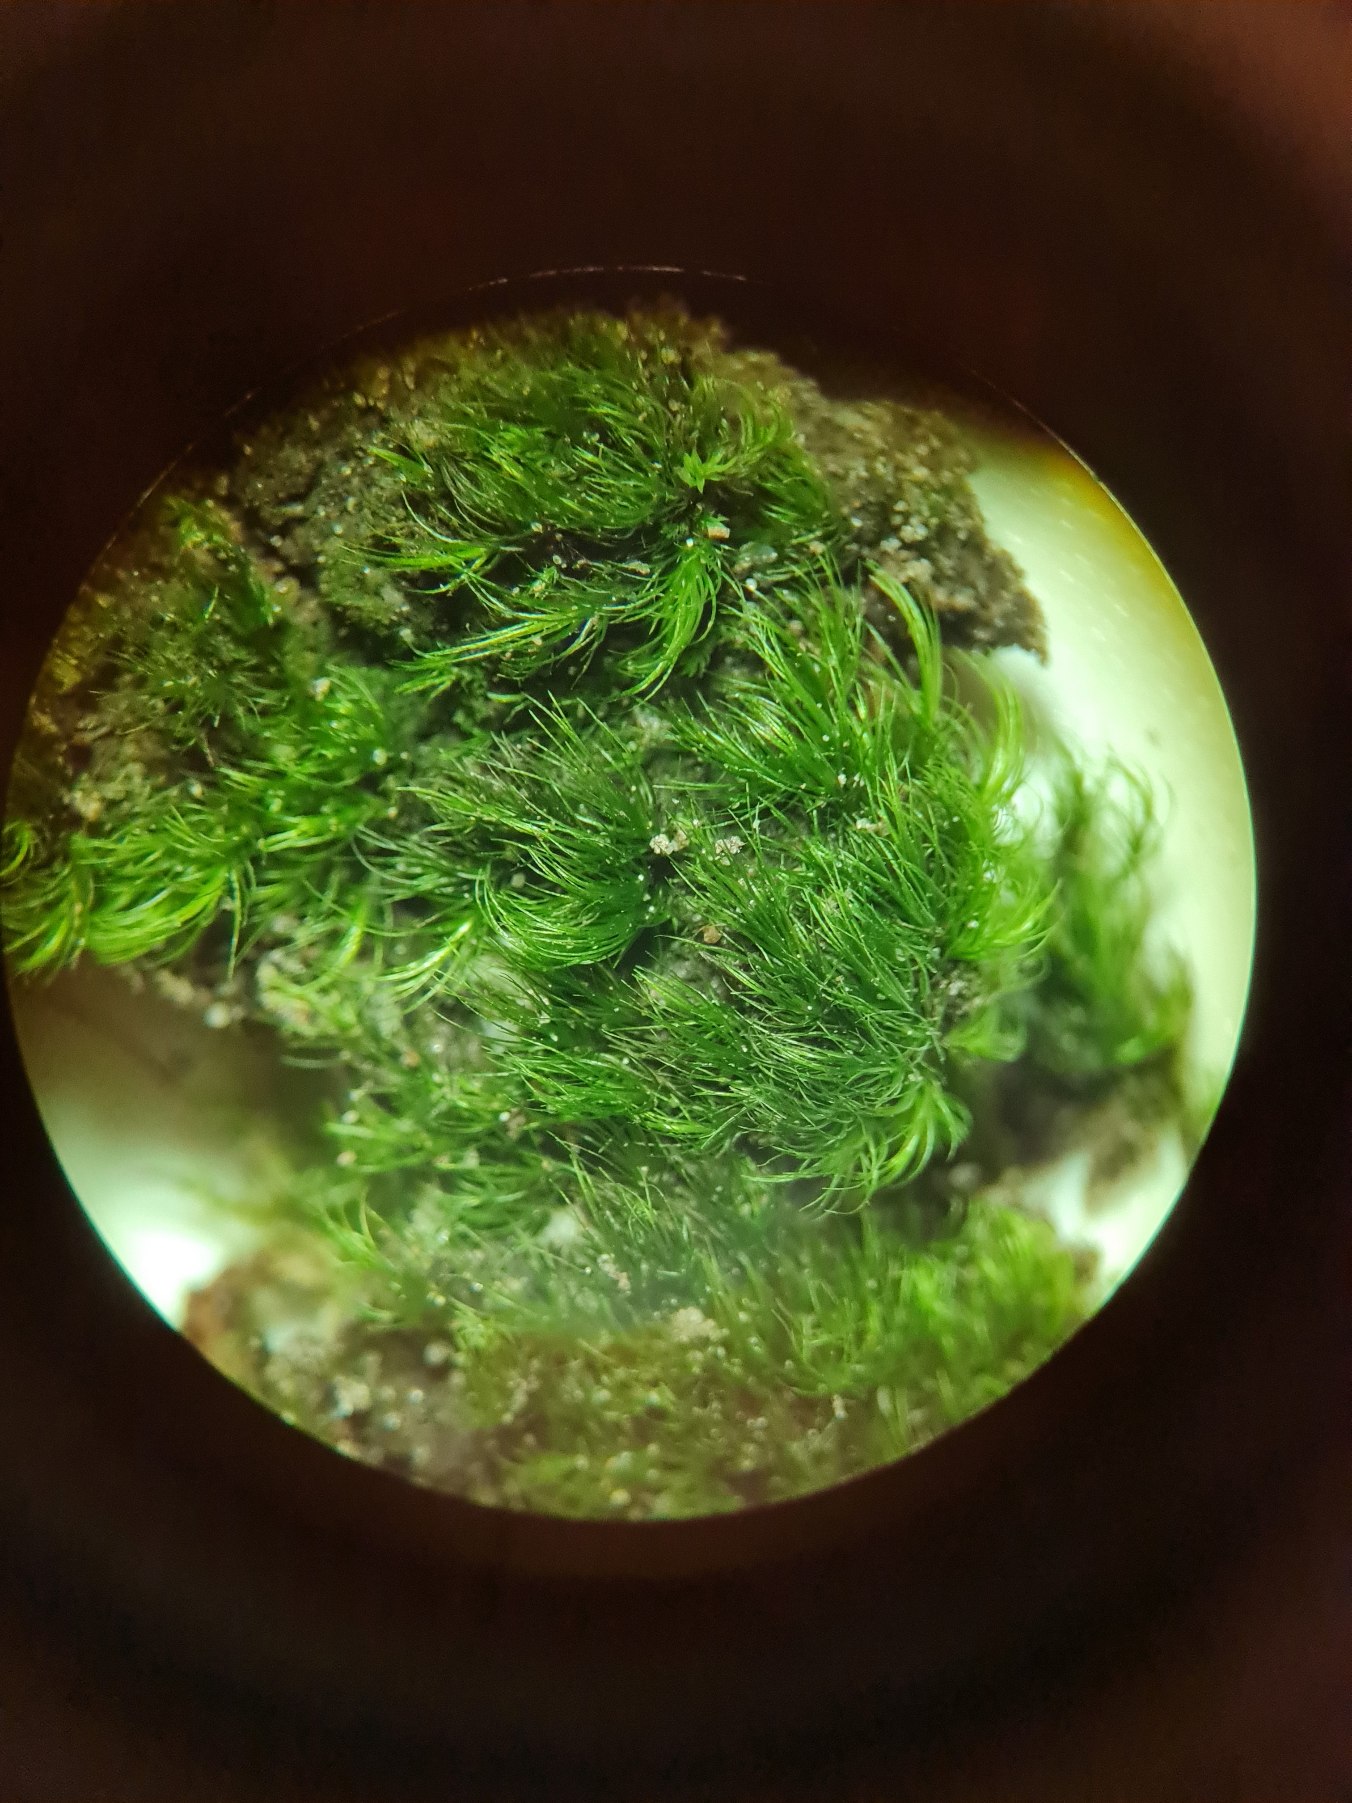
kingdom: Plantae
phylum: Bryophyta
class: Bryopsida
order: Dicranales
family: Dicranellaceae
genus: Dicranella
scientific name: Dicranella heteromalla
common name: Almindelig fløjlsmos
